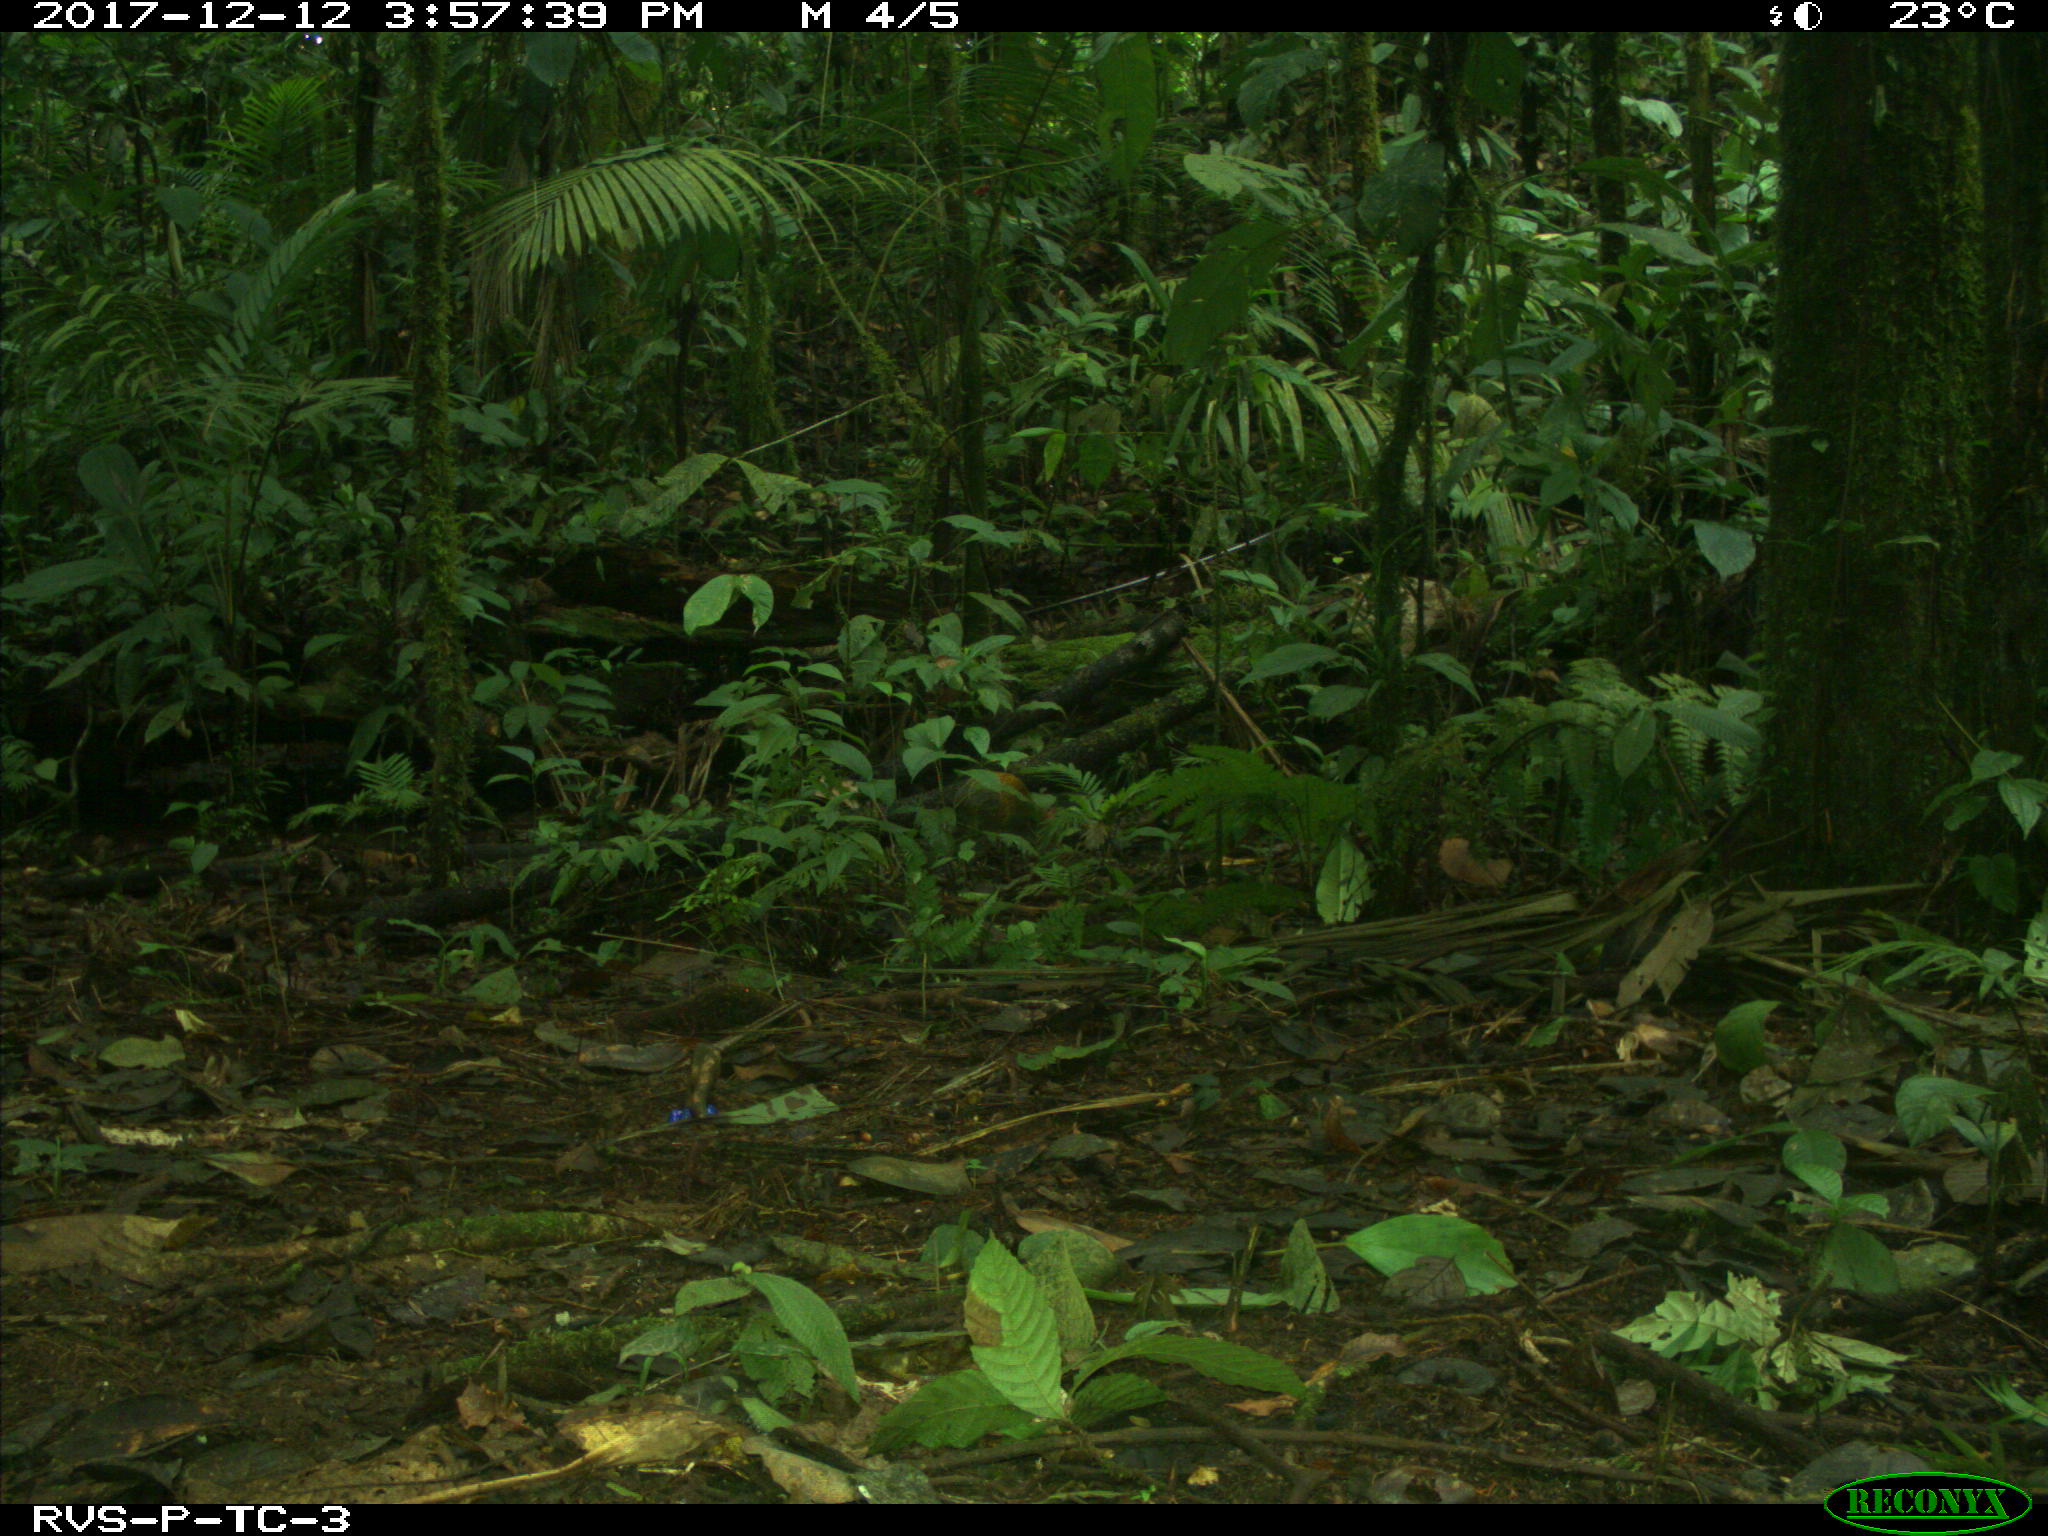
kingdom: Animalia
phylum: Chordata
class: Mammalia
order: Rodentia
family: Dasyproctidae
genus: Dasyprocta
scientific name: Dasyprocta punctata
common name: Central american agouti
